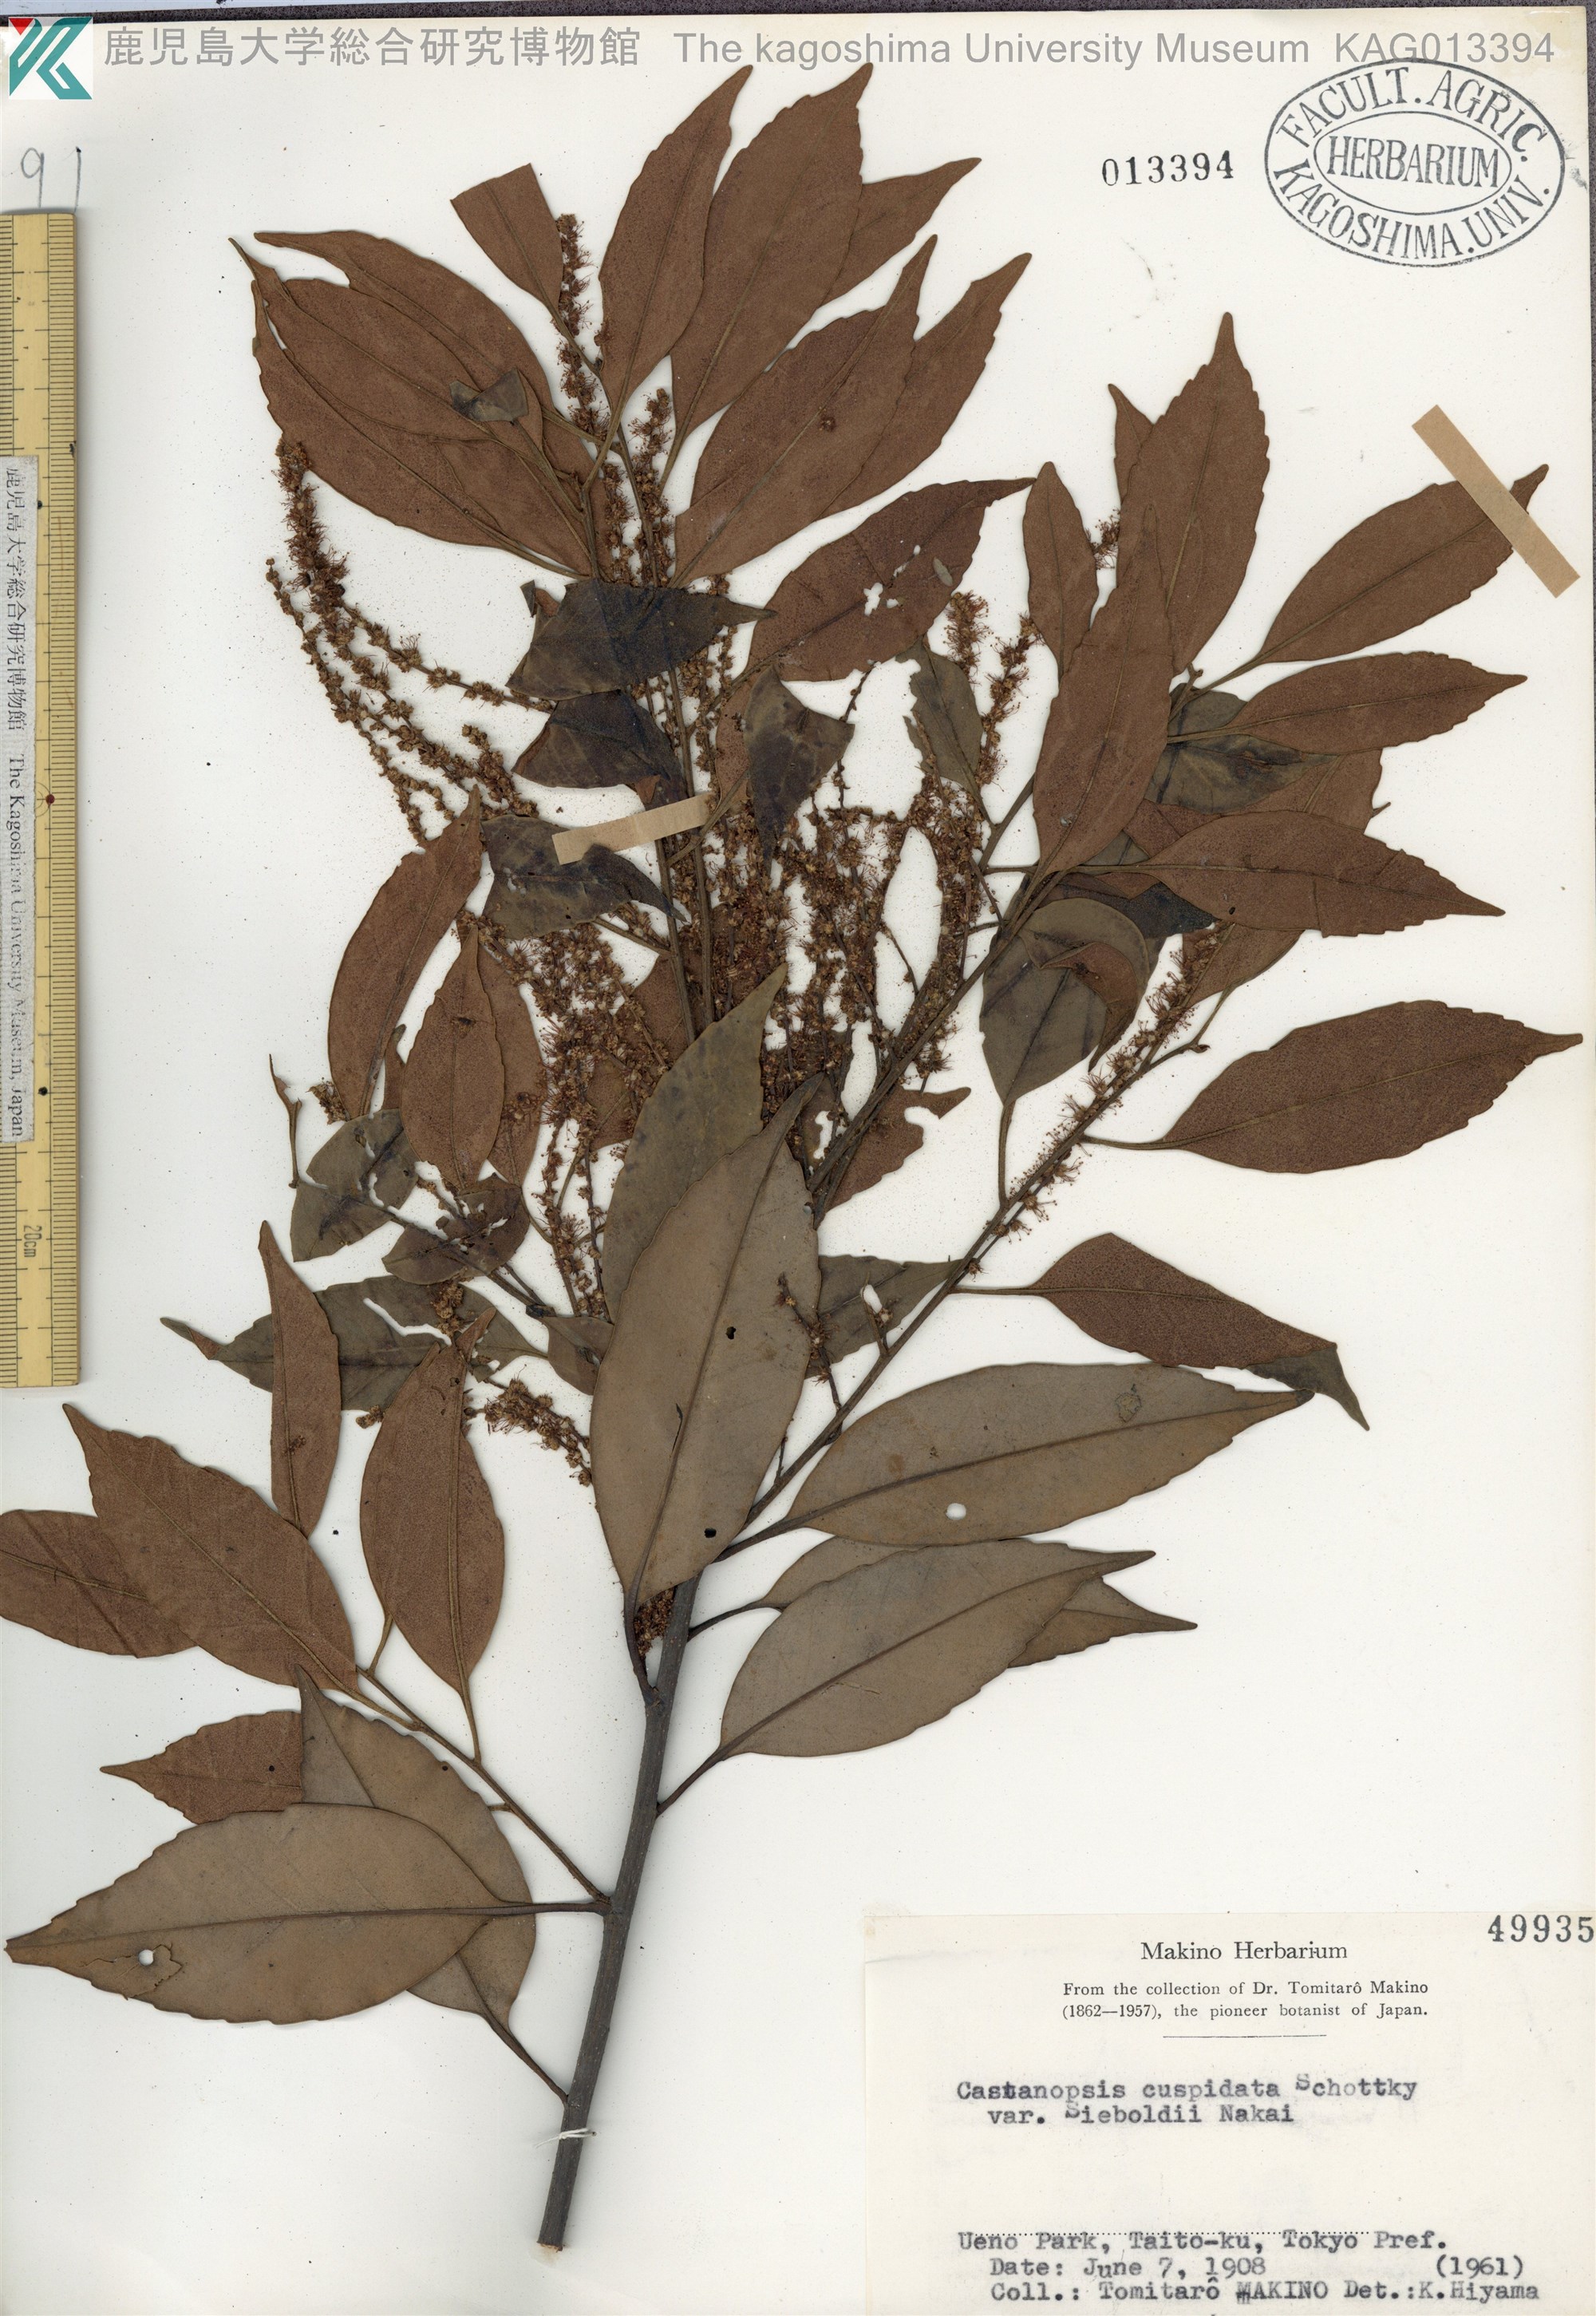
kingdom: Plantae
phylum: Tracheophyta
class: Magnoliopsida
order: Fagales
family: Fagaceae
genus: Castanopsis
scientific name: Castanopsis sieboldii
